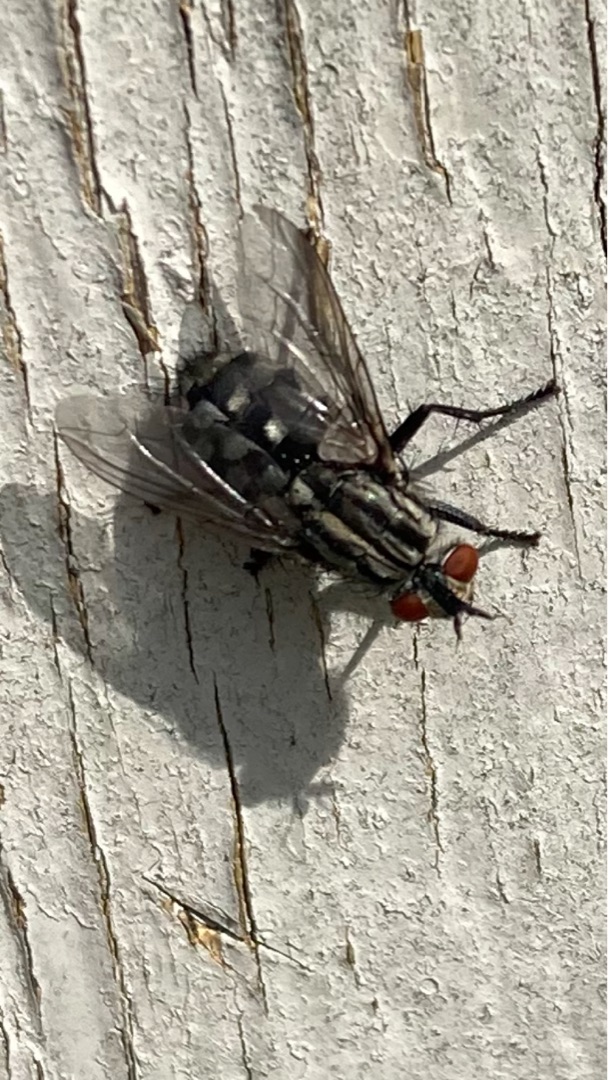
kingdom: Animalia
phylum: Arthropoda
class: Insecta
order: Diptera
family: Sarcophagidae
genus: Sarcophaga
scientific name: Sarcophaga
